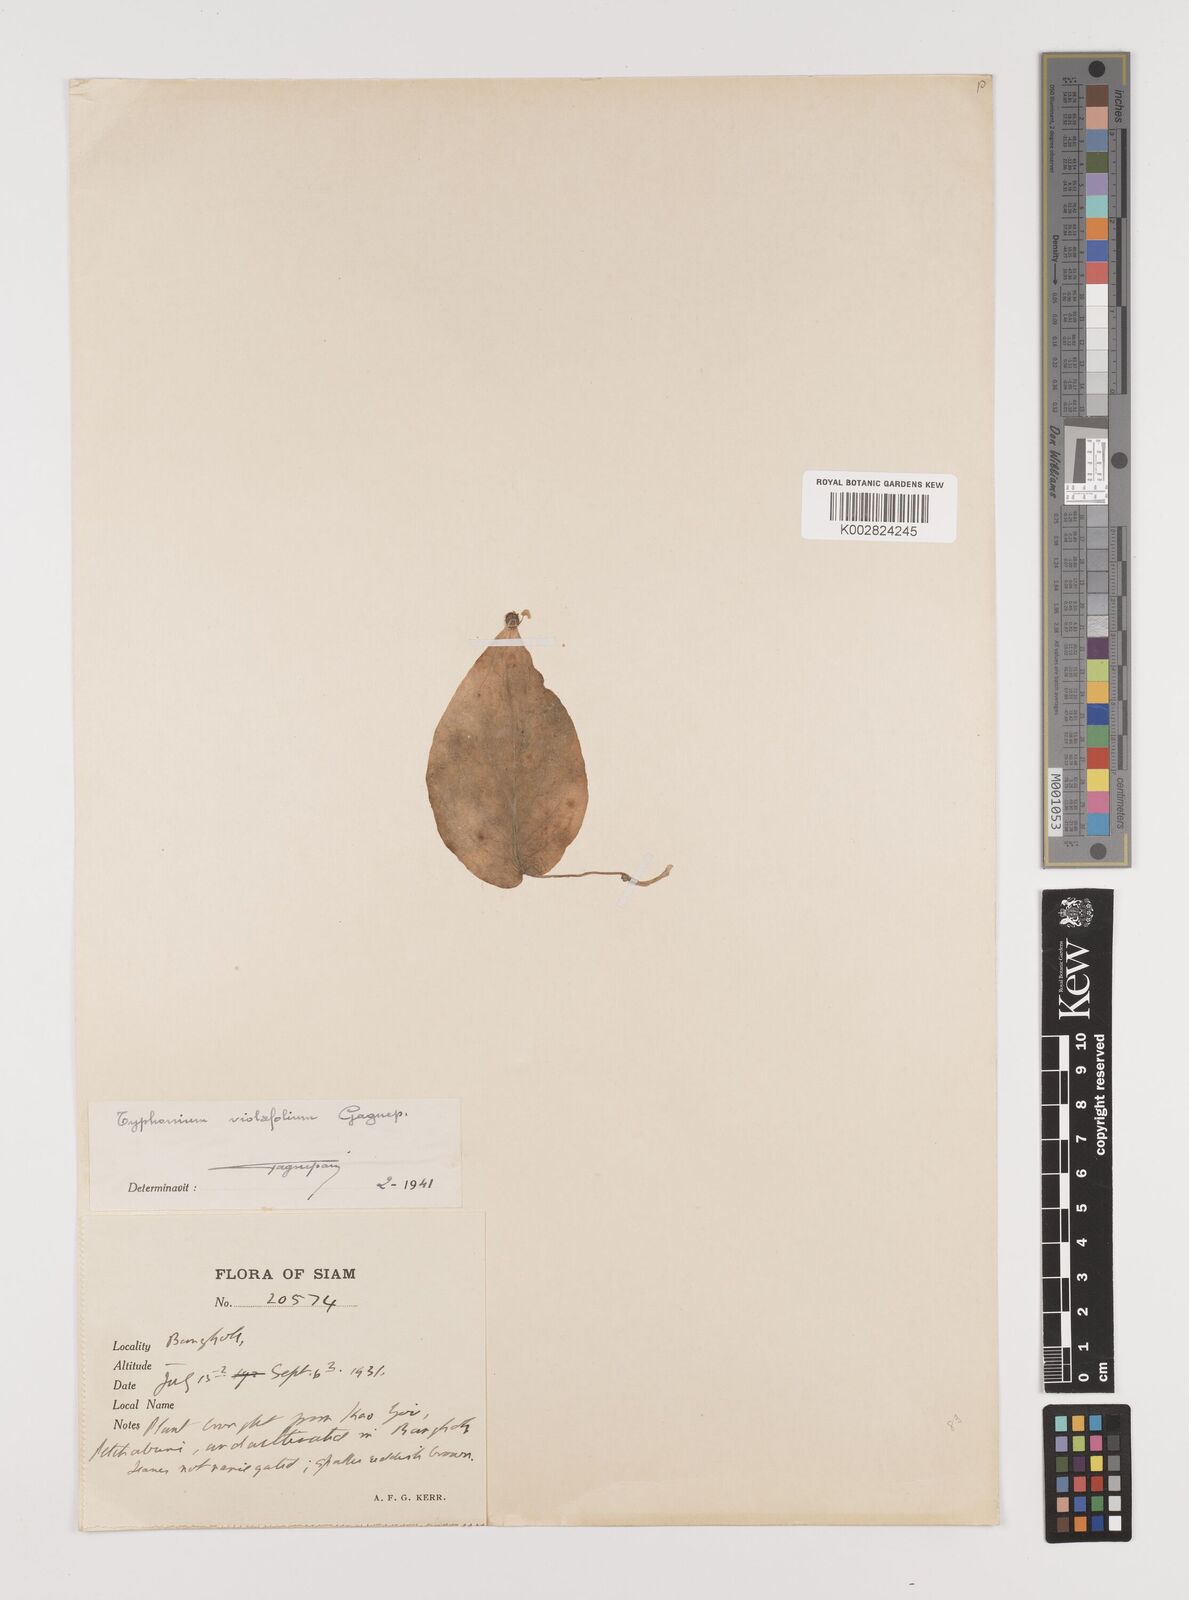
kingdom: Plantae
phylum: Tracheophyta
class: Liliopsida
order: Alismatales
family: Araceae
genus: Typhonium
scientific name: Typhonium violifolium
